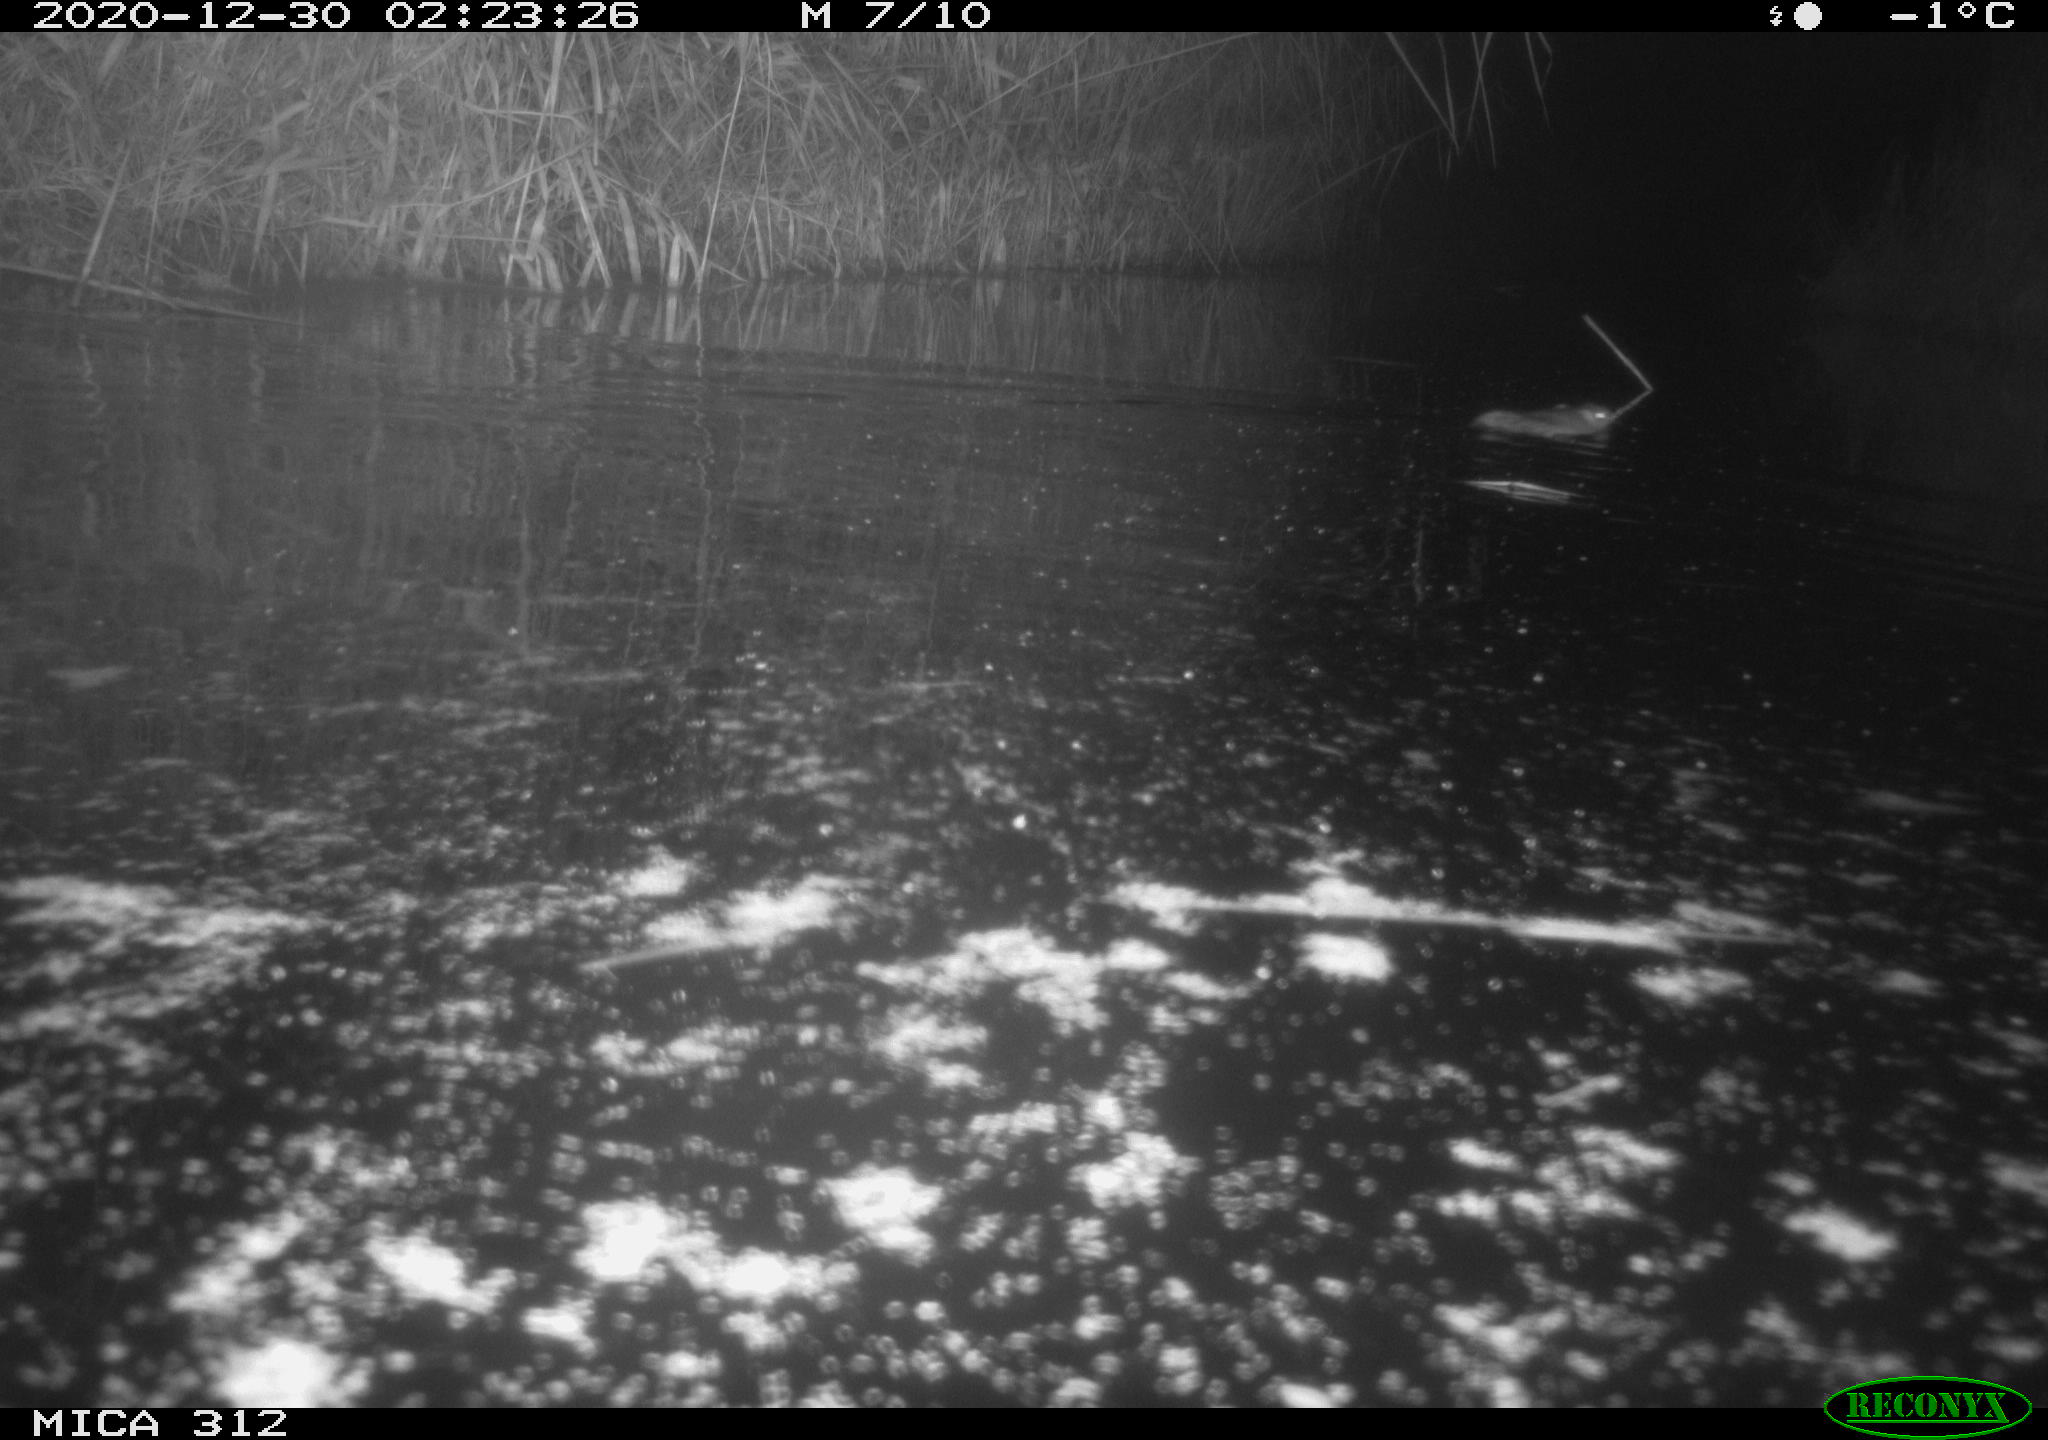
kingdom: Animalia
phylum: Chordata
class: Mammalia
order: Rodentia
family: Muridae
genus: Rattus
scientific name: Rattus norvegicus
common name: Brown rat
